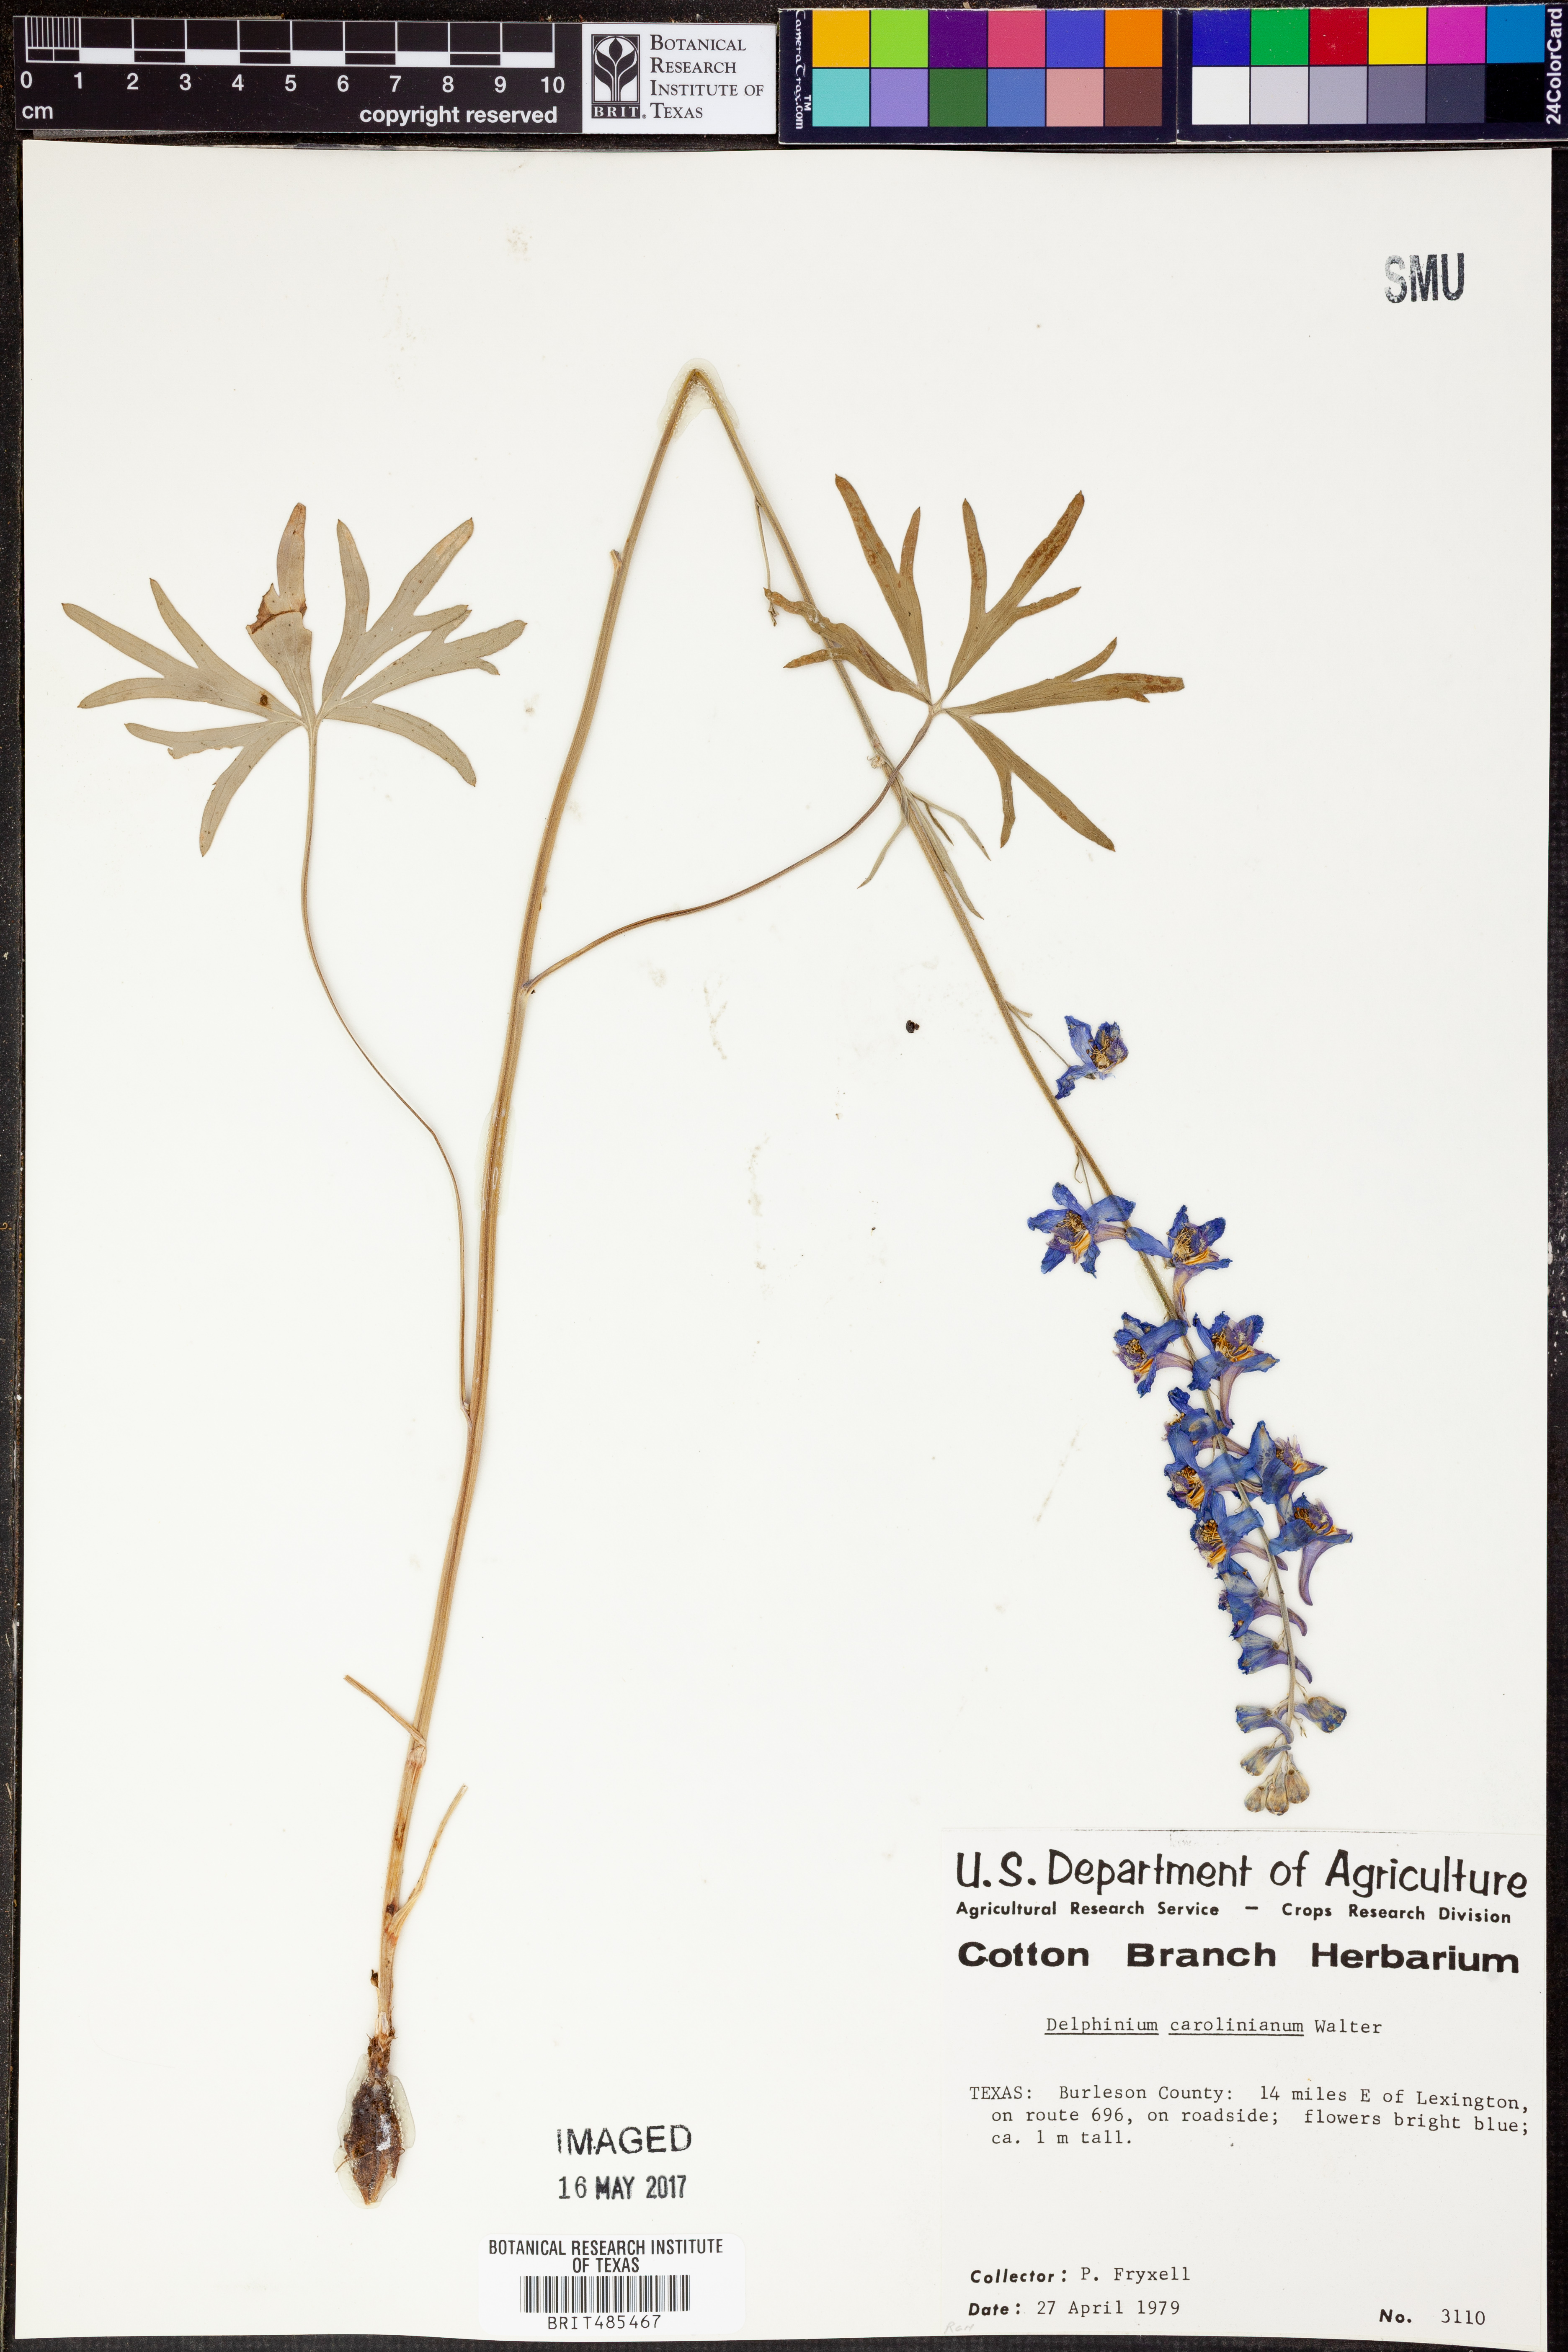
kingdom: Plantae
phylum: Tracheophyta
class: Magnoliopsida
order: Ranunculales
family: Ranunculaceae
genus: Delphinium
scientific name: Delphinium carolinianum
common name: Carolina larkspur
